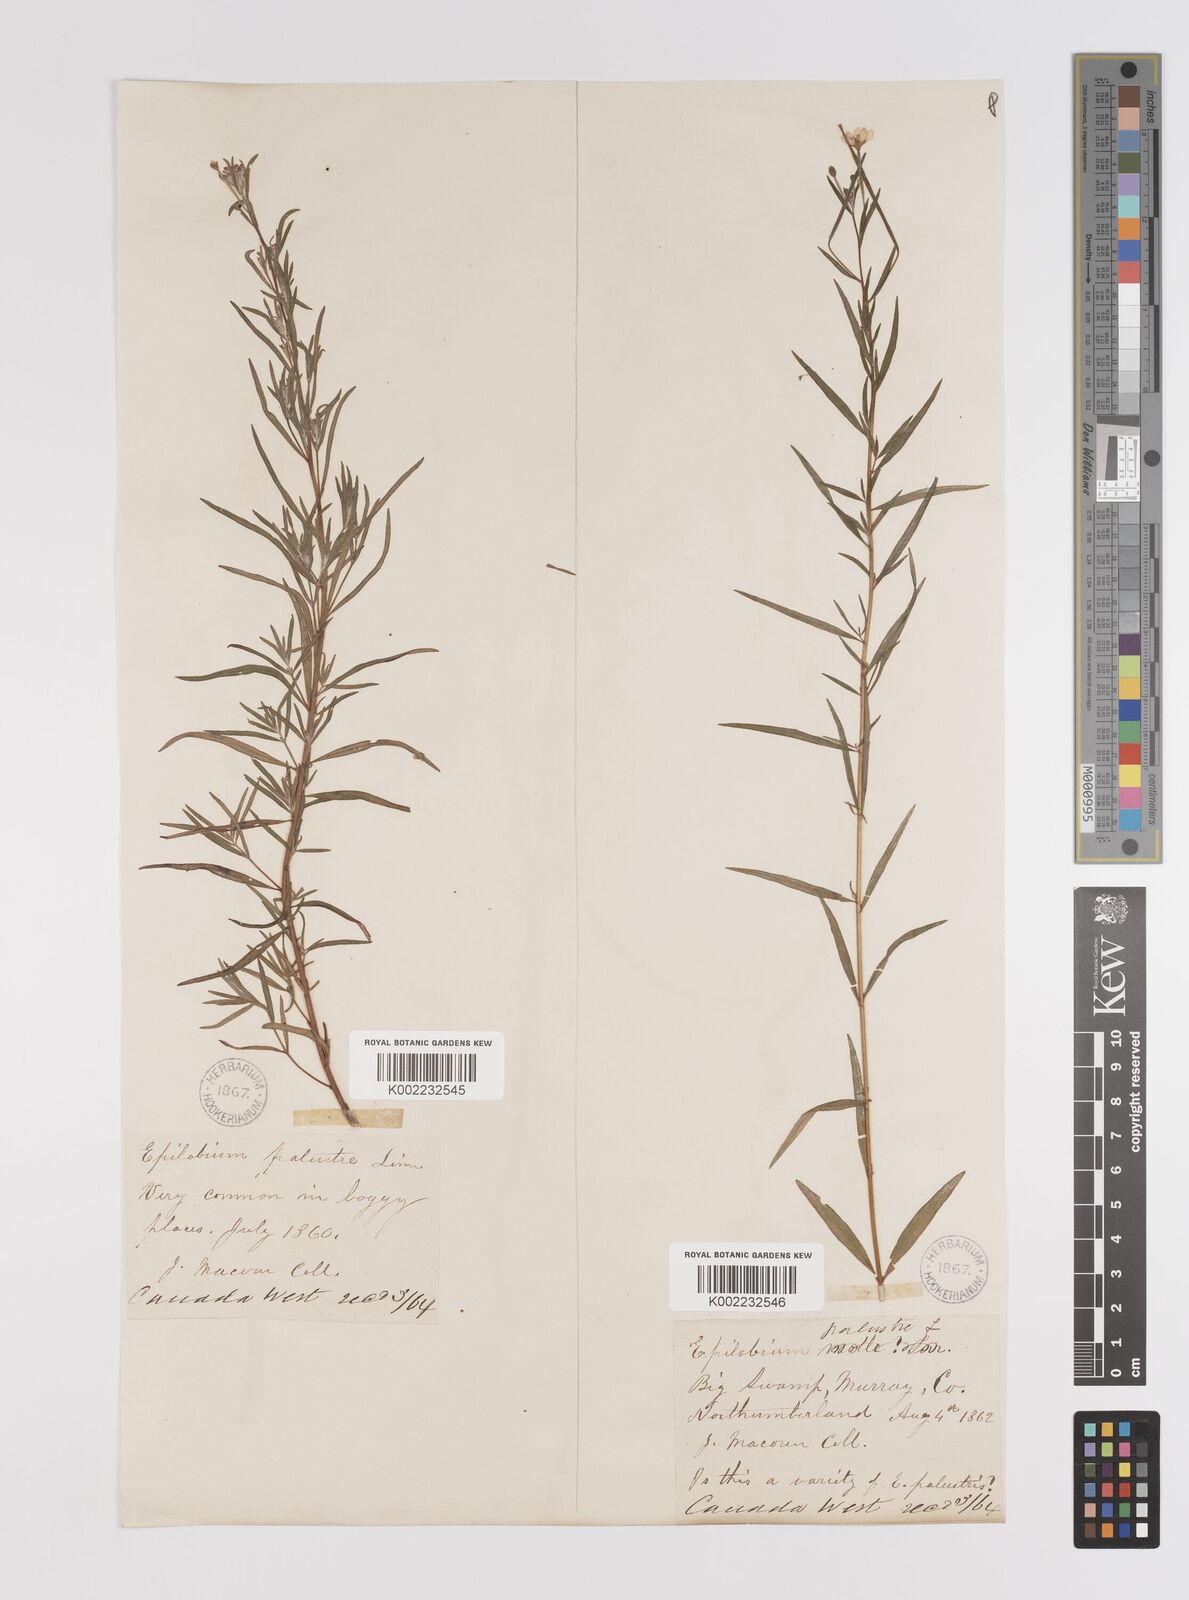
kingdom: Plantae
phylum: Tracheophyta
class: Magnoliopsida
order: Myrtales
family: Onagraceae
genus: Epilobium
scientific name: Epilobium palustre
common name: Marsh willowherb
